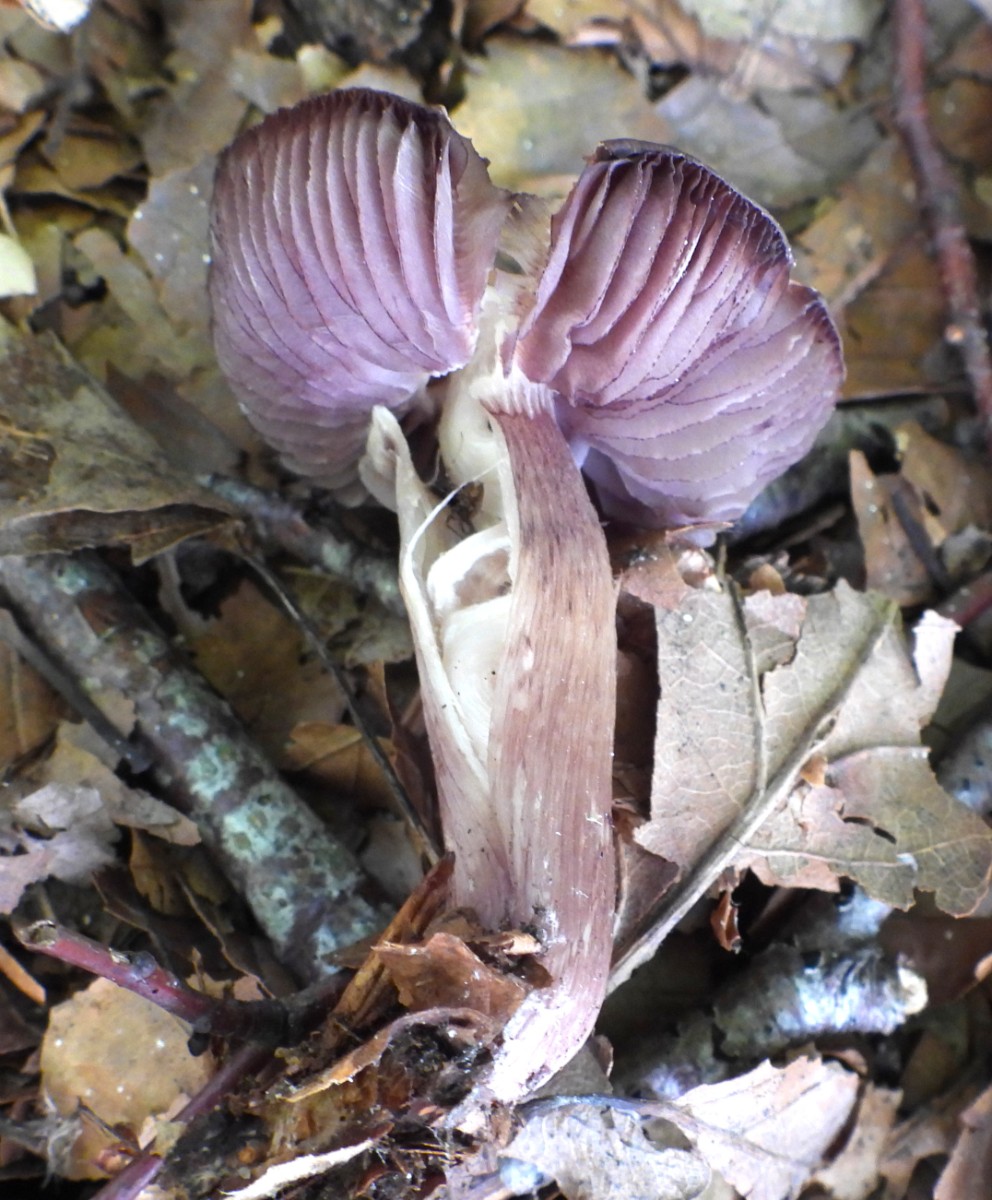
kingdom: Fungi
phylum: Basidiomycota
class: Agaricomycetes
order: Agaricales
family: Mycenaceae
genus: Mycena
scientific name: Mycena pelianthina
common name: mørkbladet huesvamp
